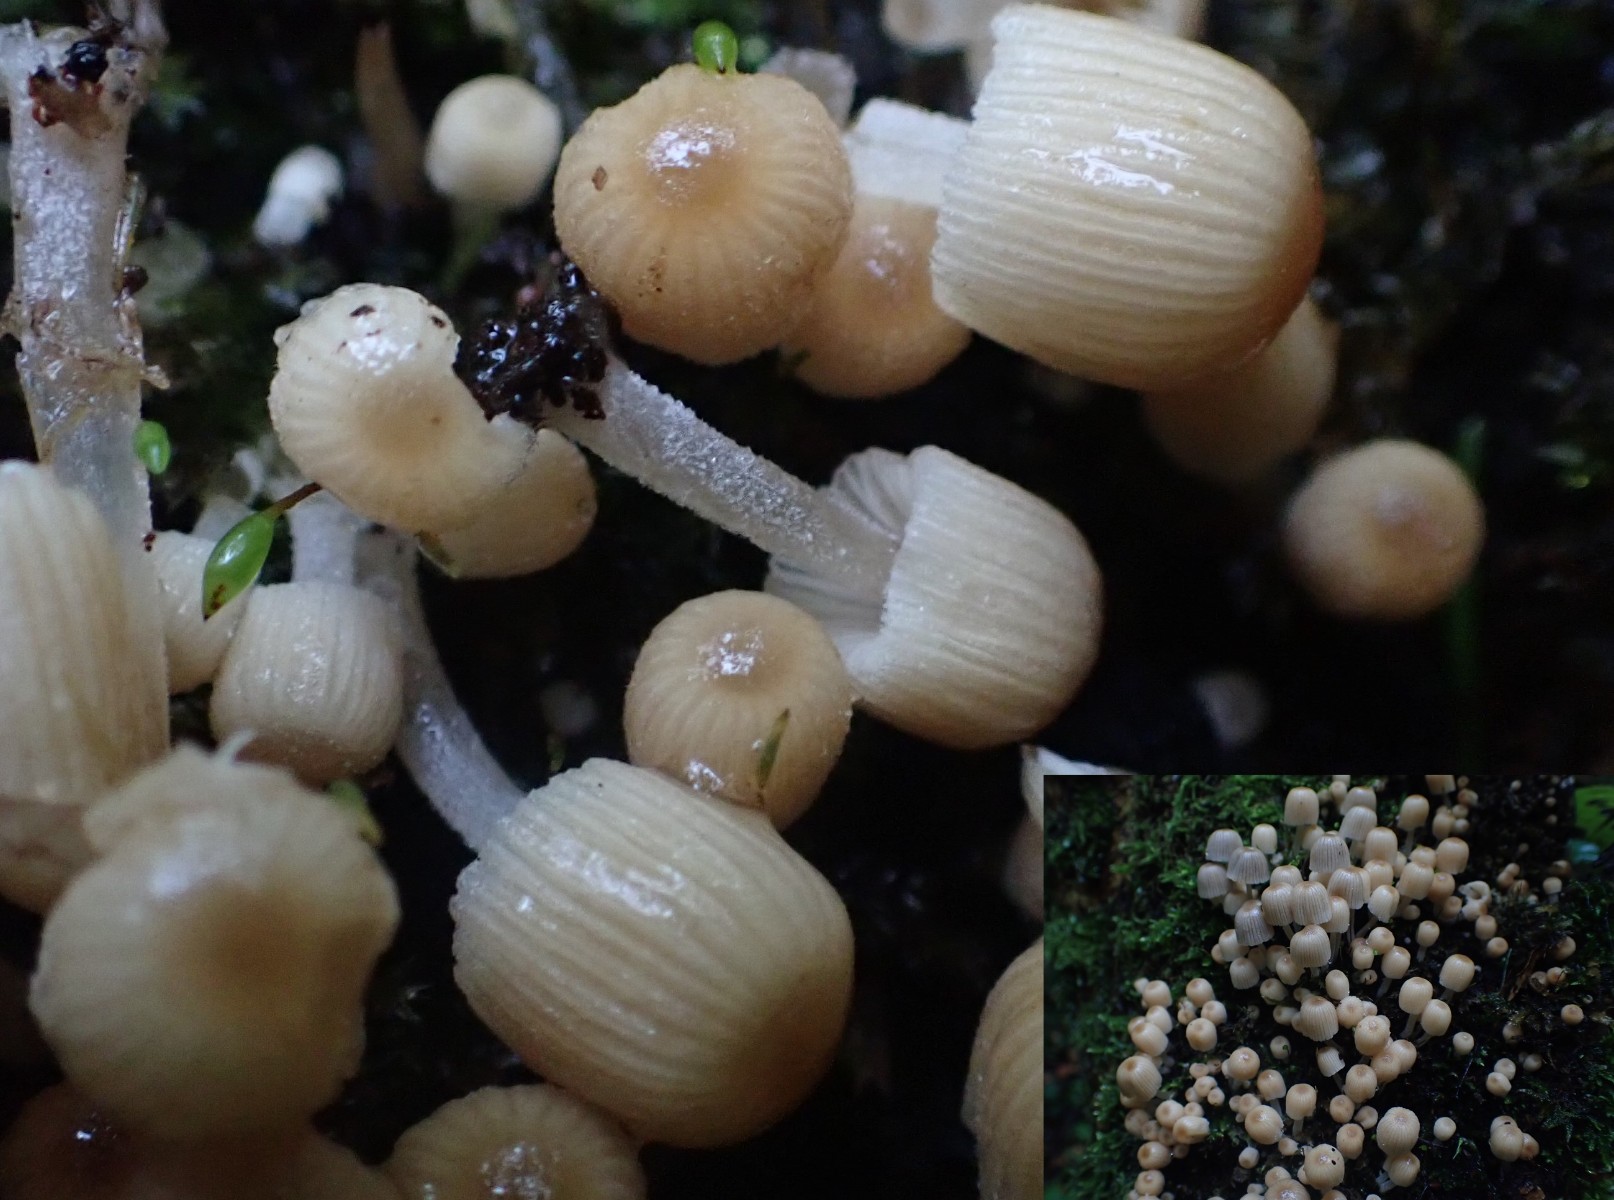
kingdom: Fungi
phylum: Basidiomycota
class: Agaricomycetes
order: Agaricales
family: Psathyrellaceae
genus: Coprinellus
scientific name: Coprinellus disseminatus
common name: bredsået blækhat
